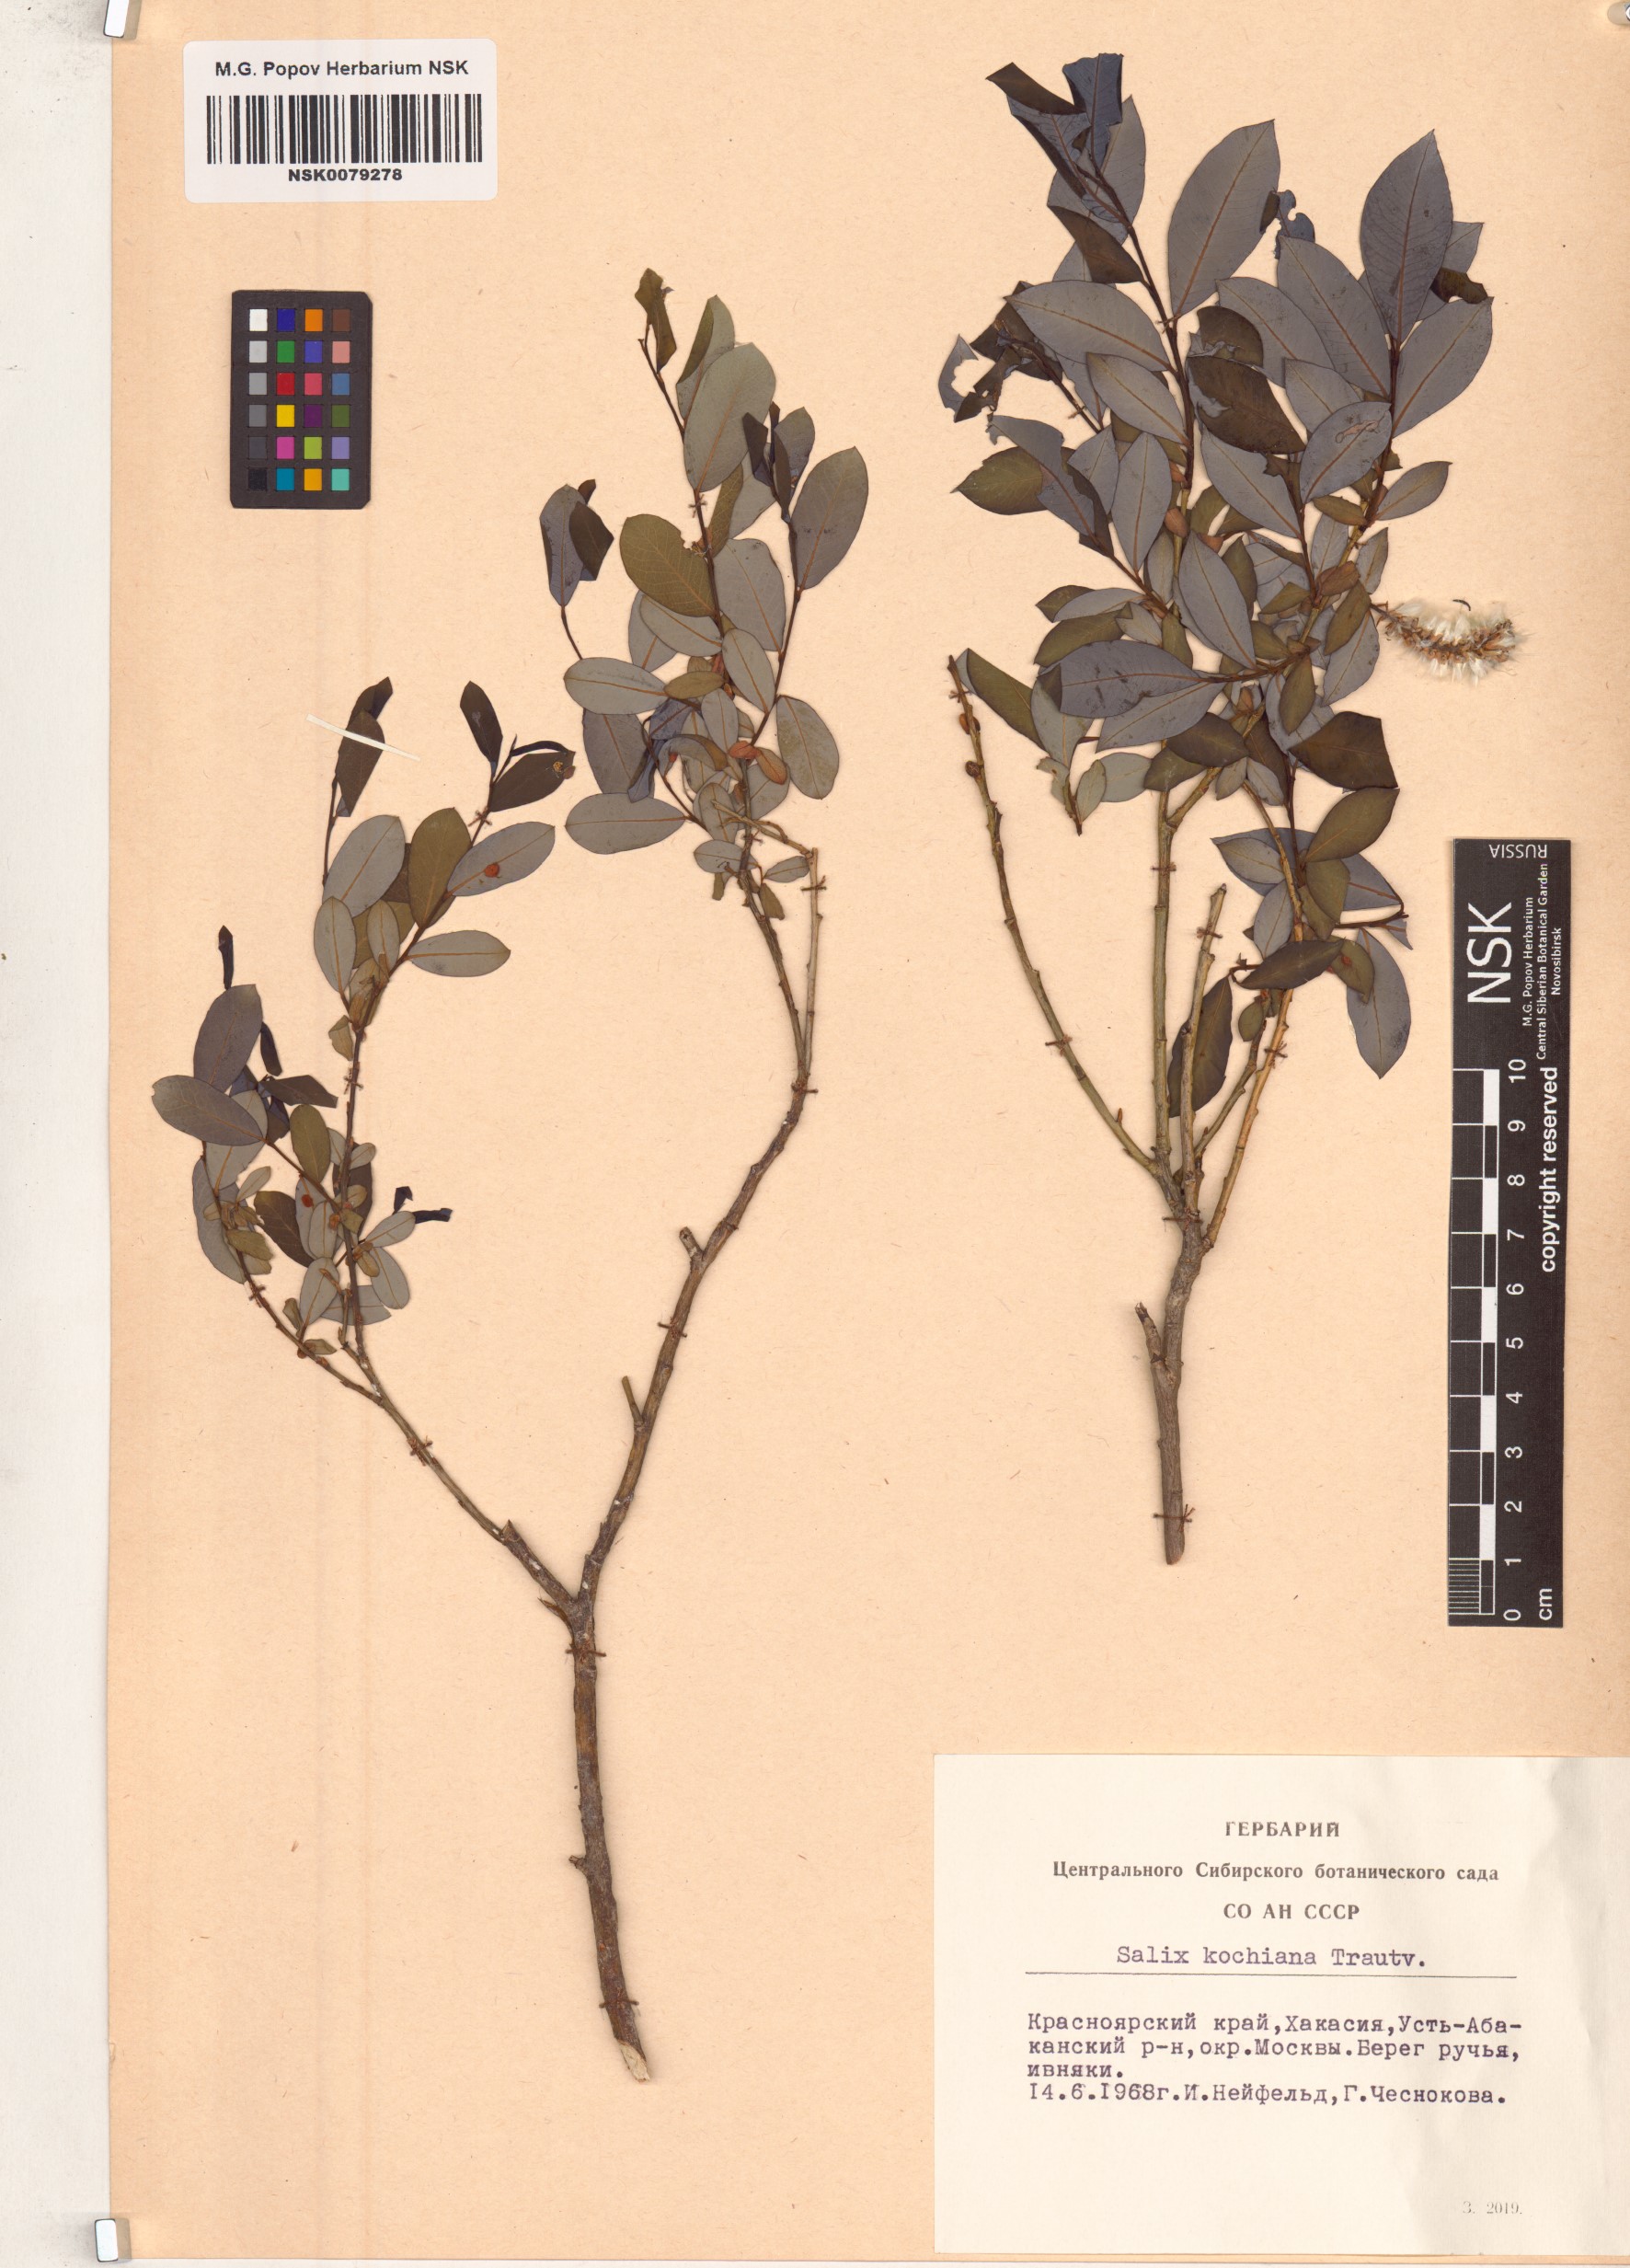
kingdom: Plantae
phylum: Tracheophyta
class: Magnoliopsida
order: Malpighiales
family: Salicaceae
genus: Salix
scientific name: Salix kochiana
